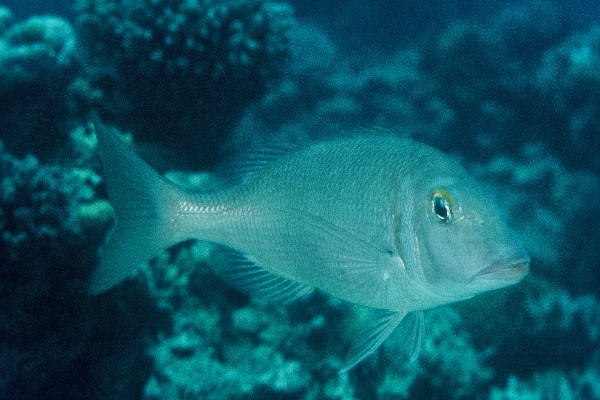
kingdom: Animalia
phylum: Chordata
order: Perciformes
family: Lethrinidae
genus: Lethrinus
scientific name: Lethrinus obsoletus
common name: Orange-striped emperor
